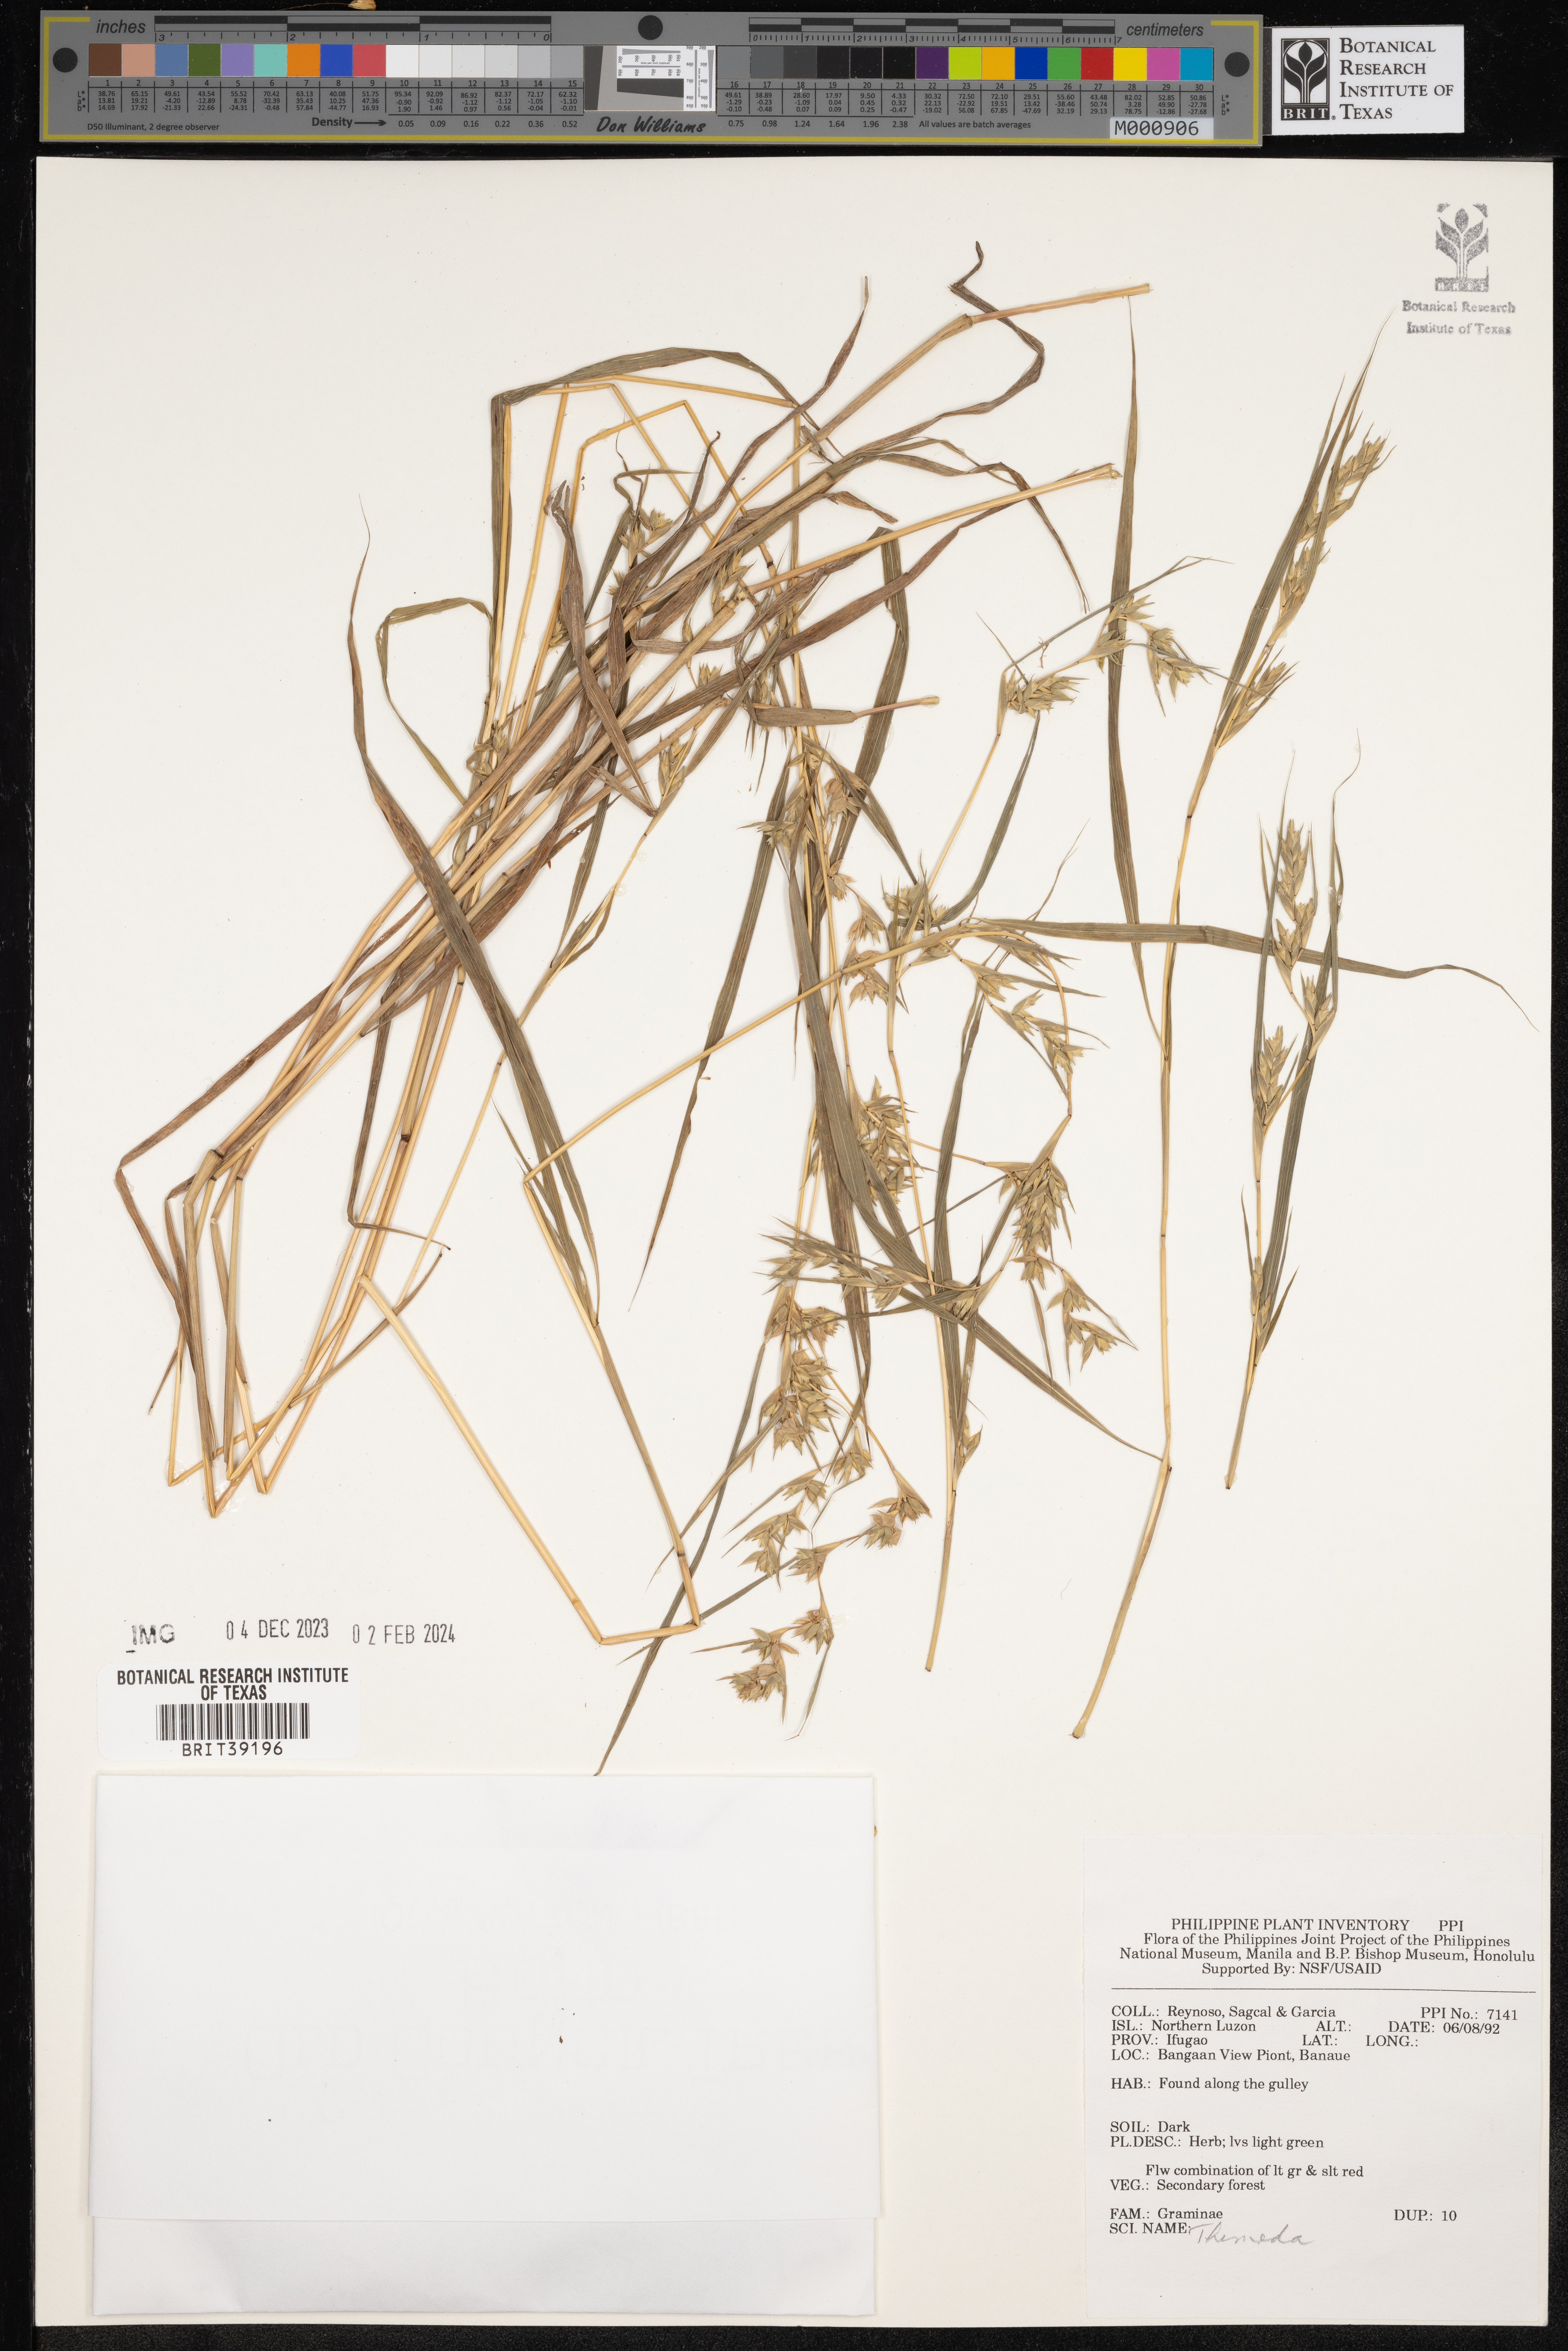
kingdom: Plantae
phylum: Tracheophyta
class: Liliopsida
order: Poales
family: Poaceae
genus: Themeda
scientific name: Themeda
